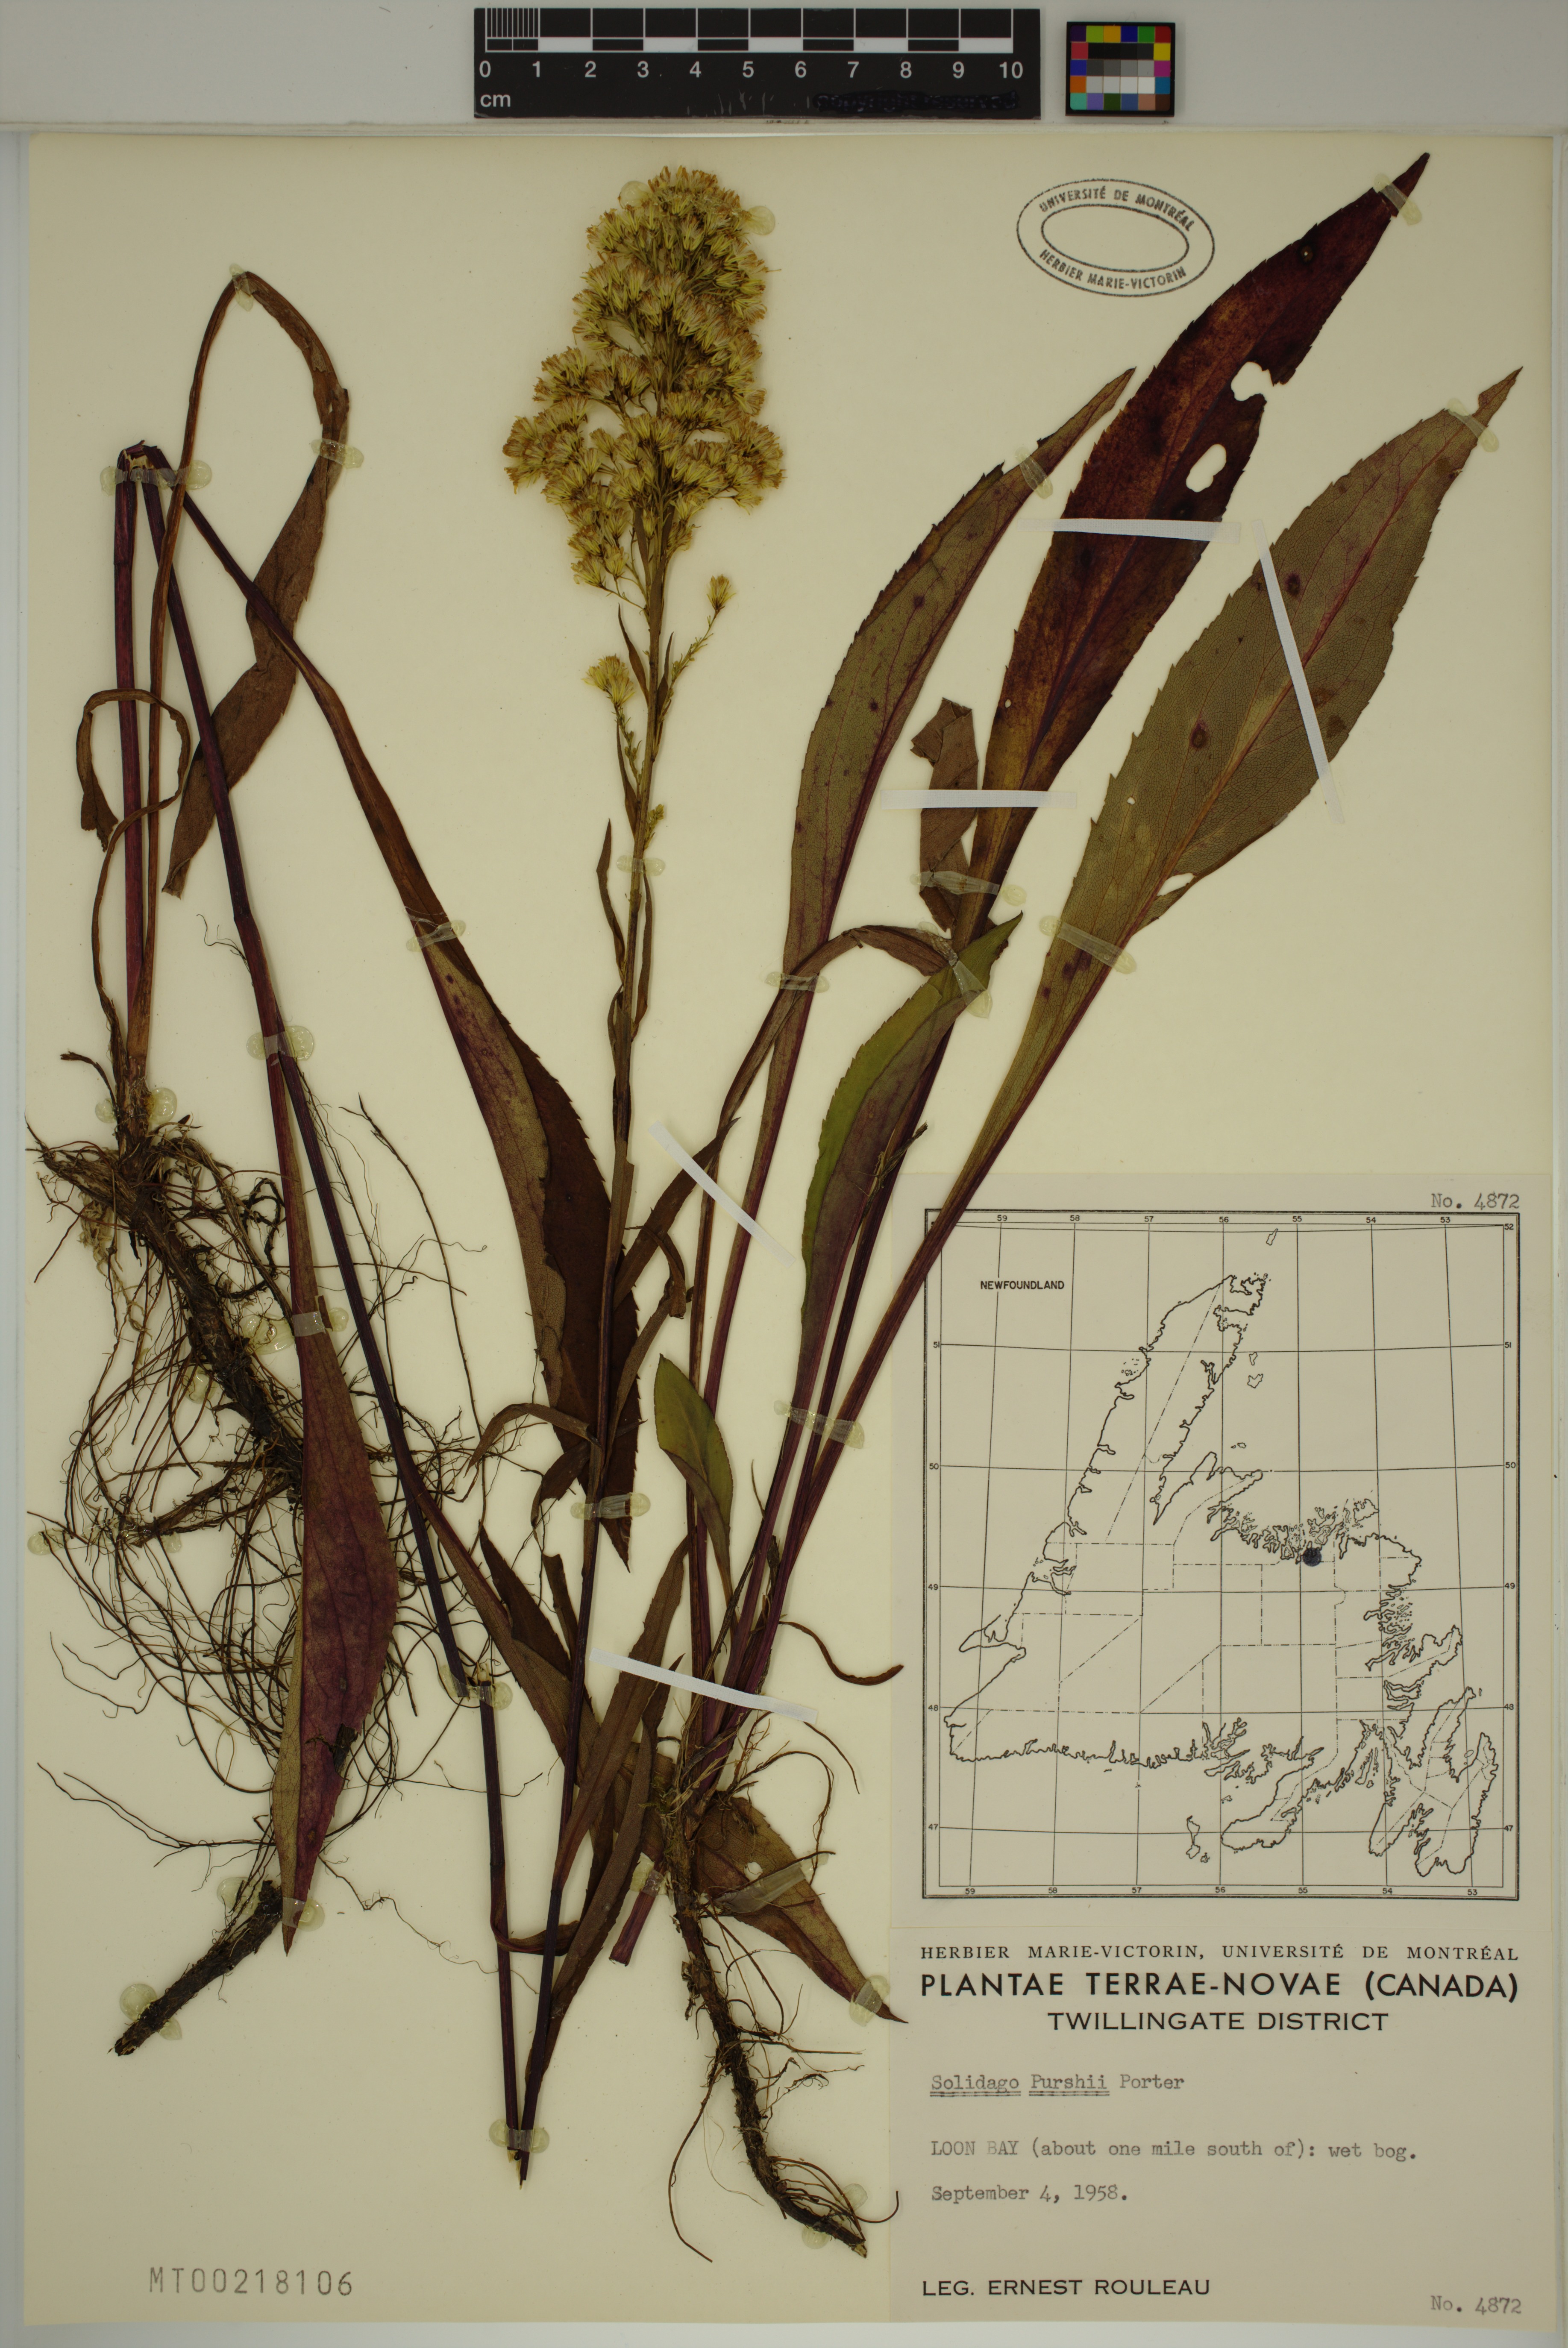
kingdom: Plantae
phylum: Tracheophyta
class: Magnoliopsida
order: Asterales
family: Asteraceae
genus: Solidago
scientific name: Solidago uliginosa
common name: Bog goldenrod
